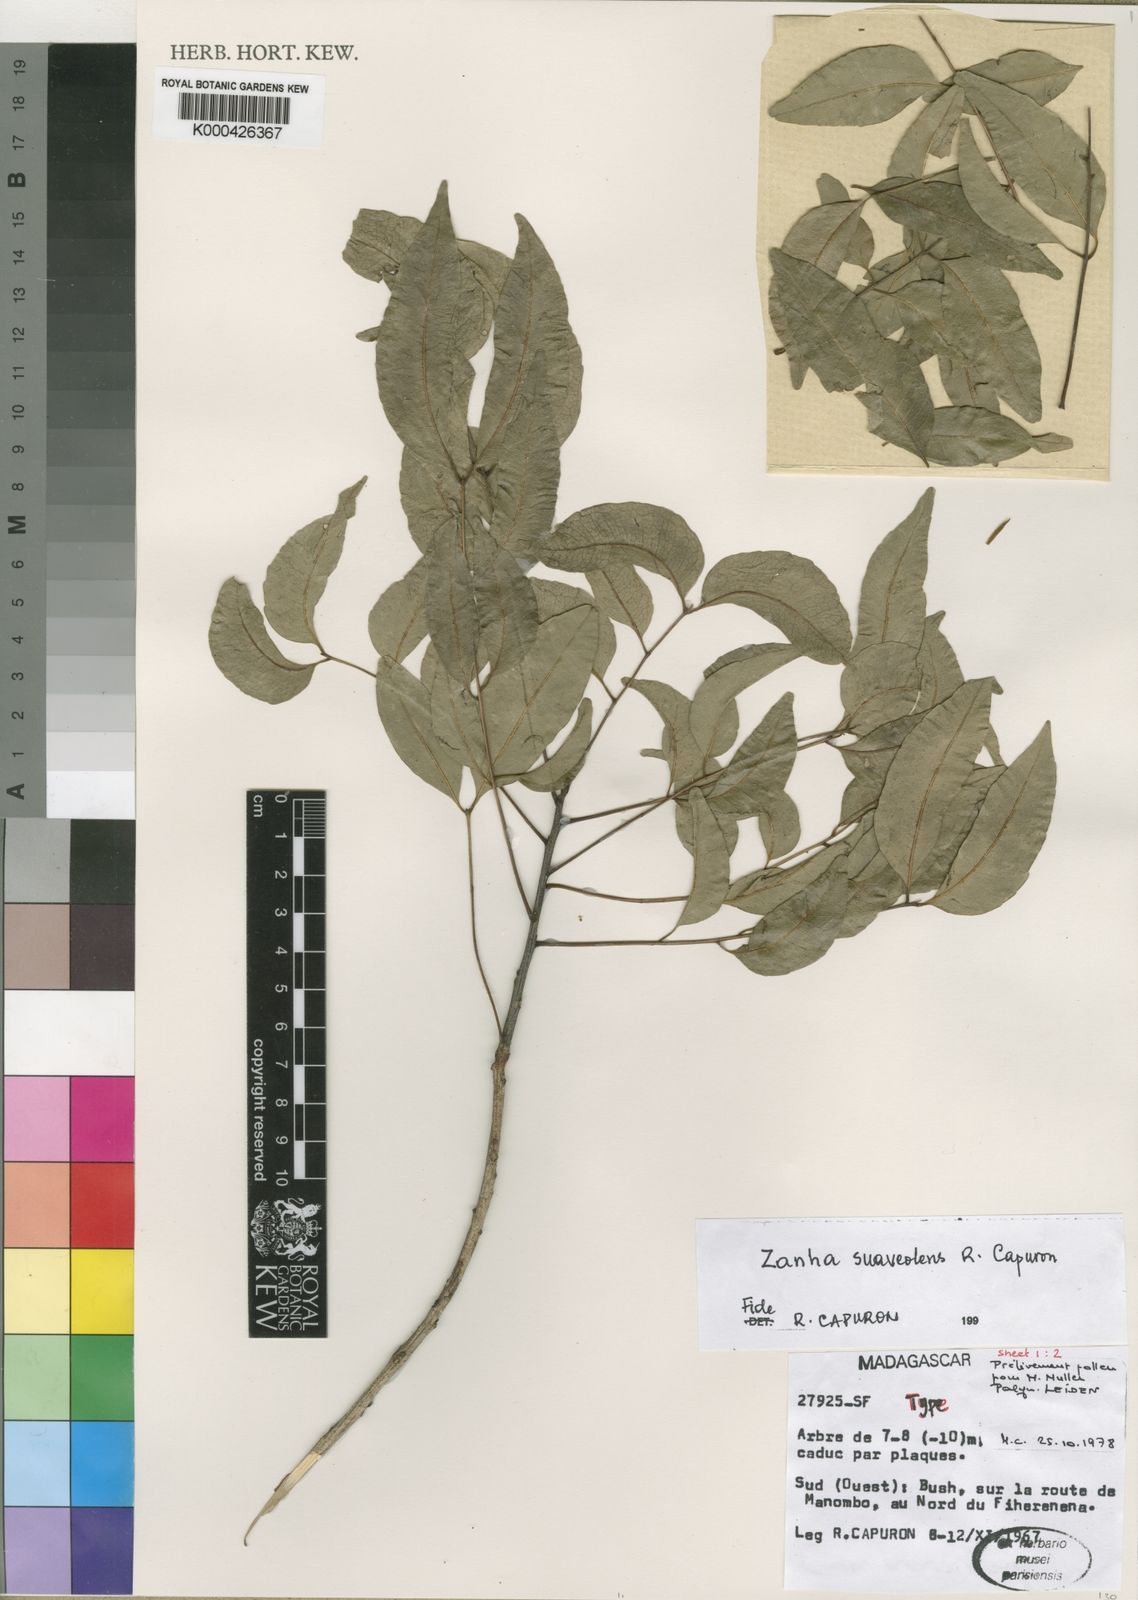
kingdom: Plantae
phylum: Tracheophyta
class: Magnoliopsida
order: Sapindales
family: Sapindaceae
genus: Zanha
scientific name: Zanha suaveolens
